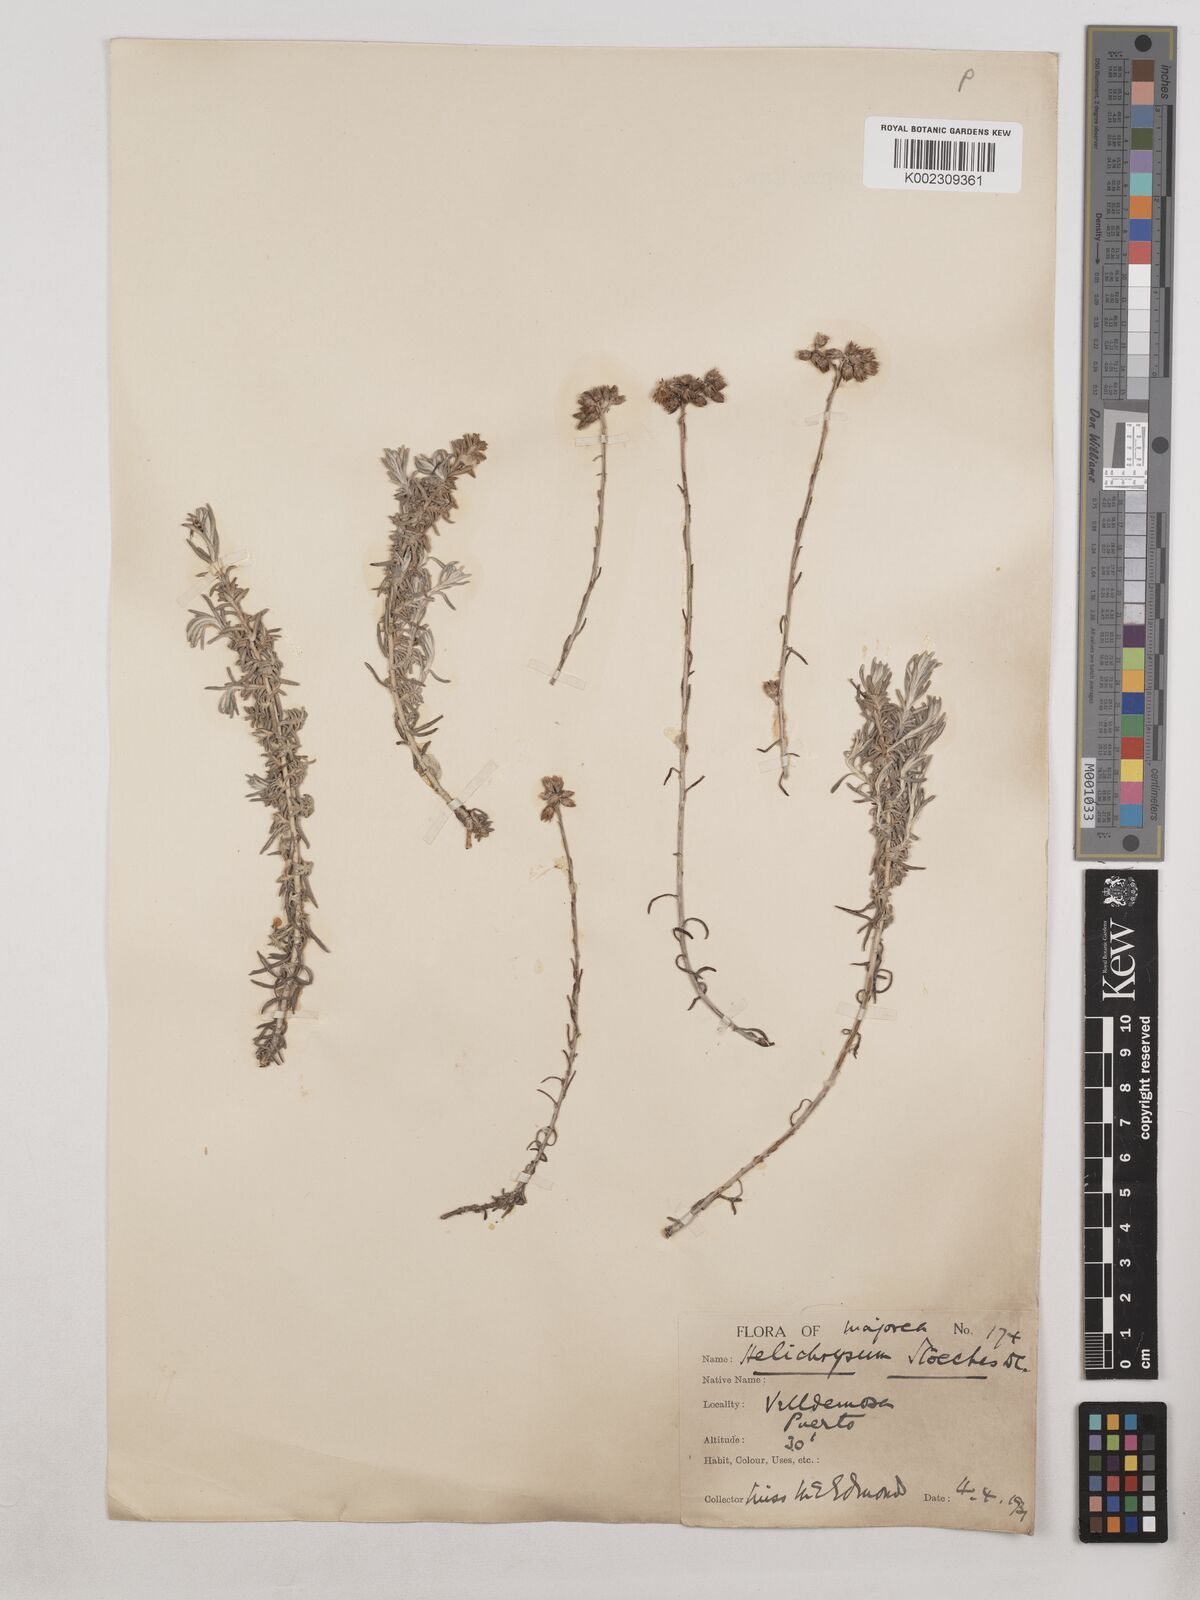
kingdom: Plantae
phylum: Tracheophyta
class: Magnoliopsida
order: Asterales
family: Asteraceae
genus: Helichrysum
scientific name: Helichrysum stoechas
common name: Goldilocks
